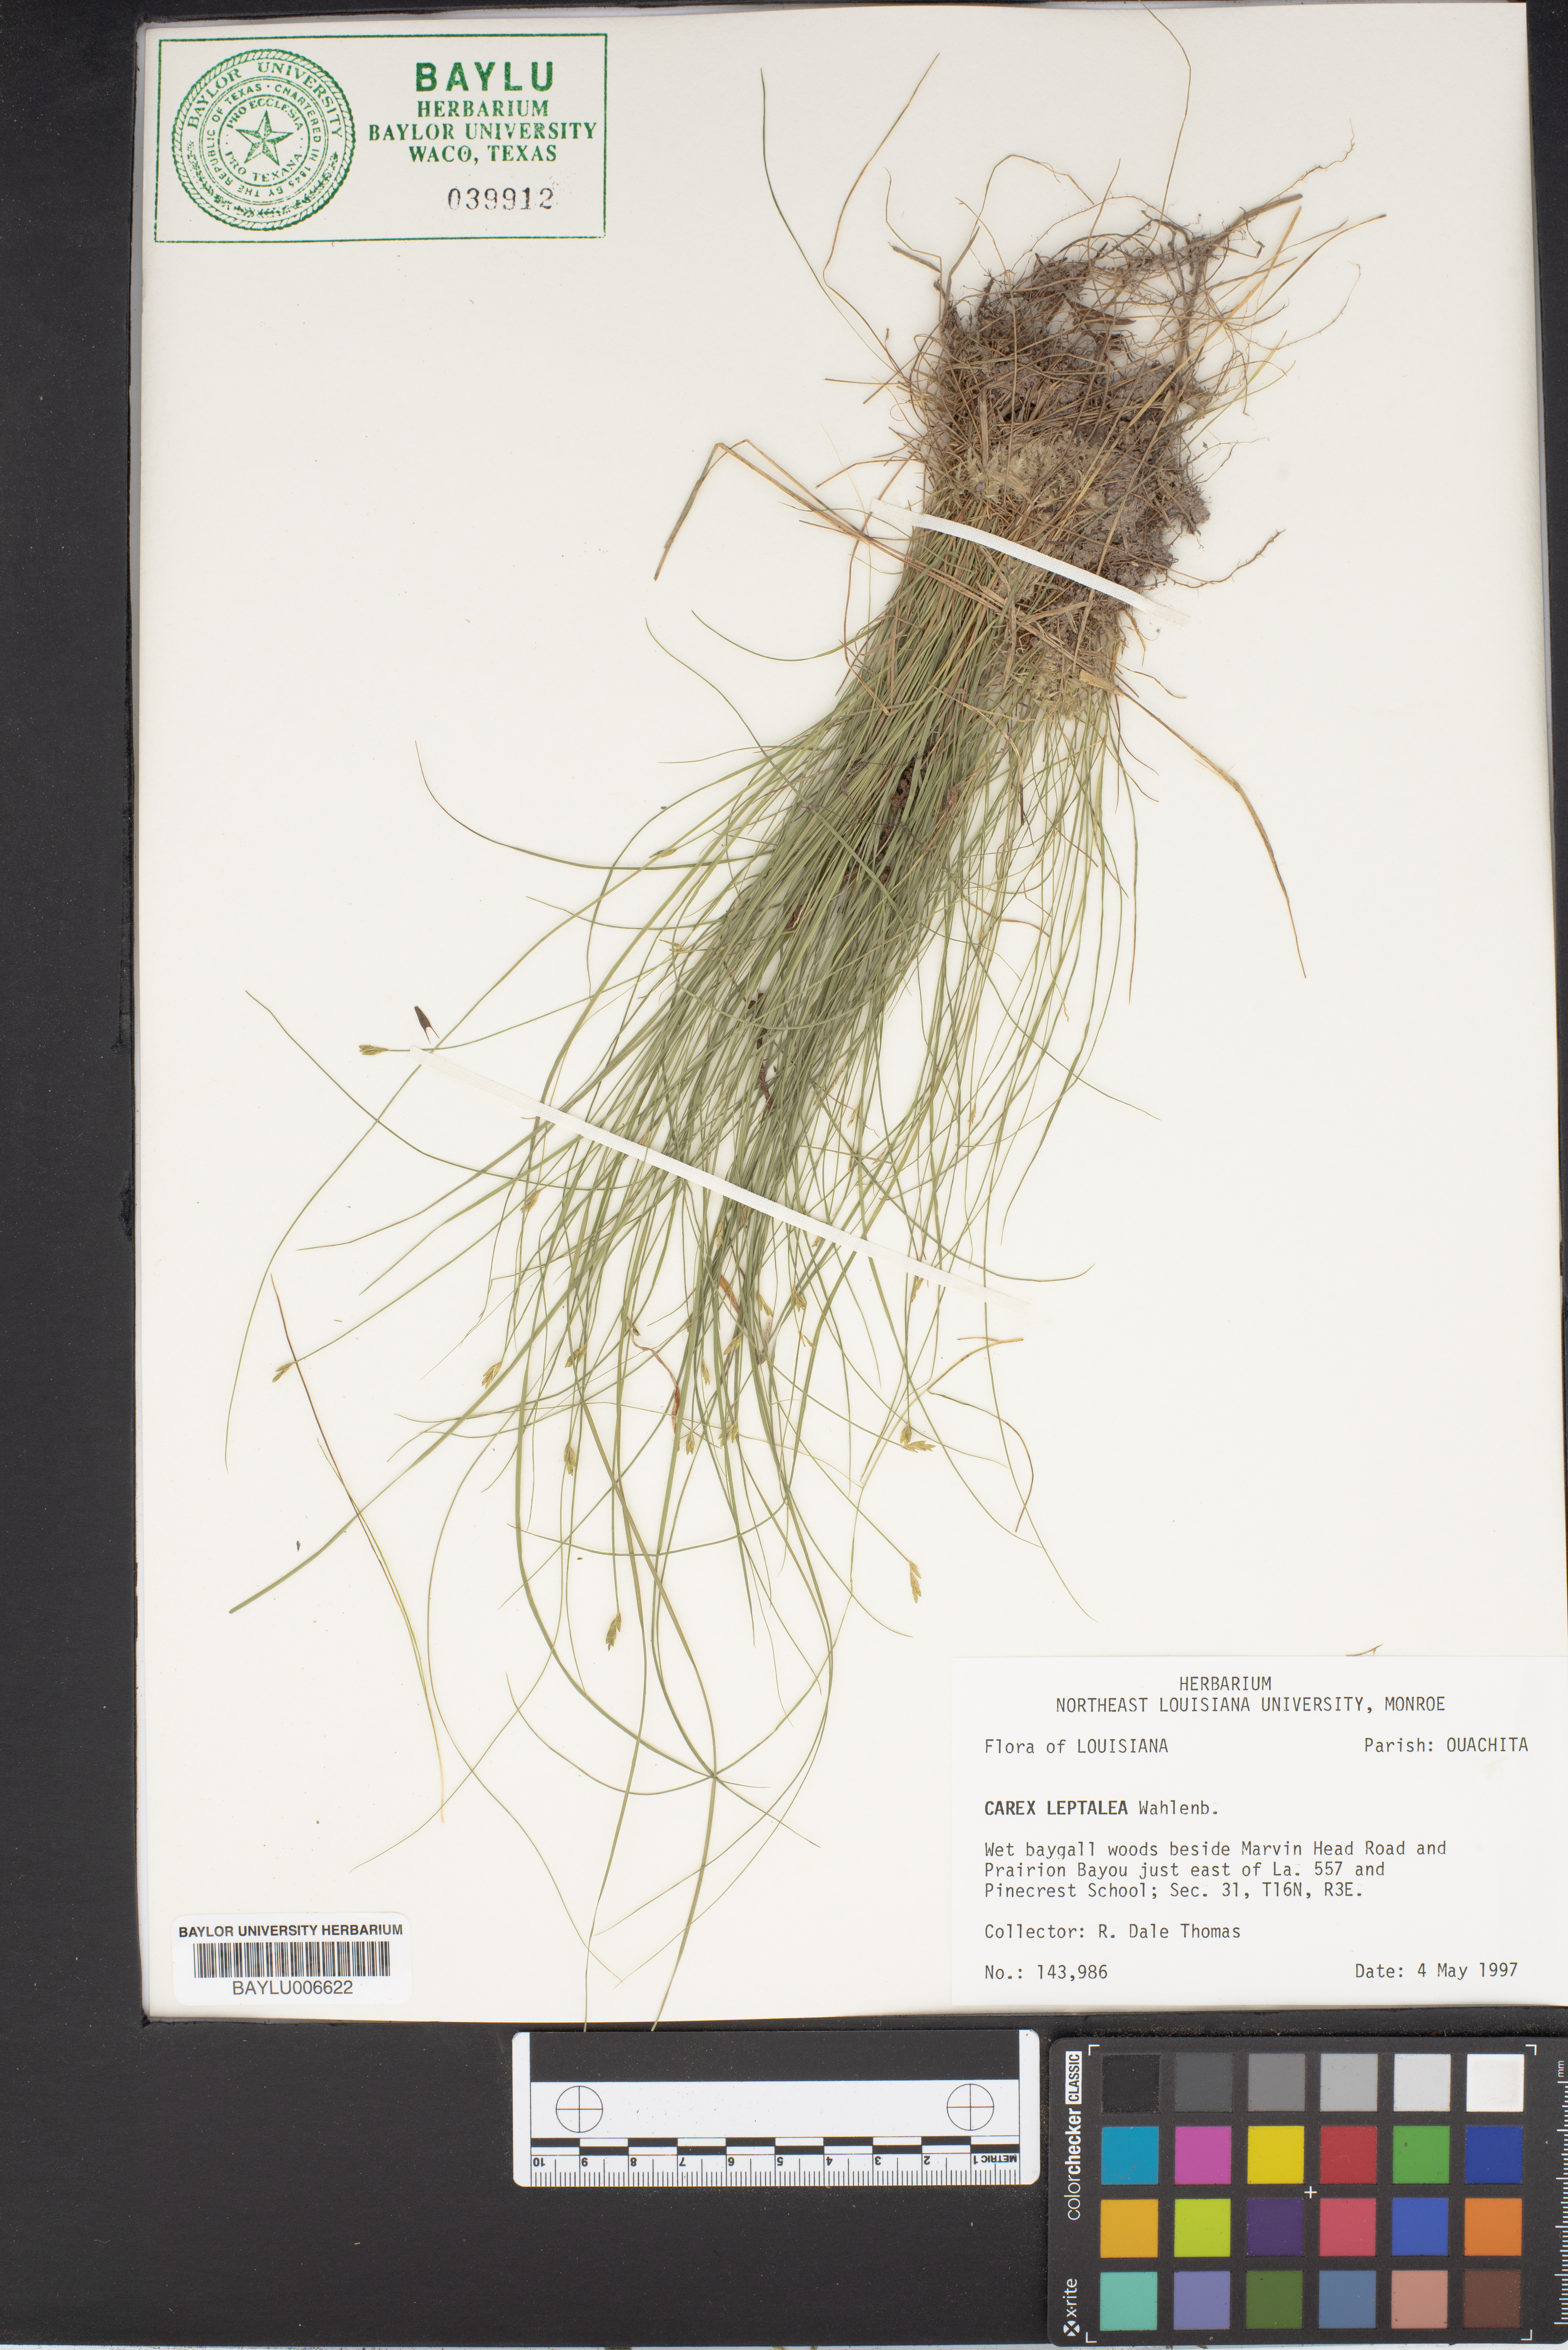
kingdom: Plantae
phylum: Tracheophyta
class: Liliopsida
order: Poales
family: Cyperaceae
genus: Carex
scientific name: Carex leptalea
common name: Bristly-stalked sedge
